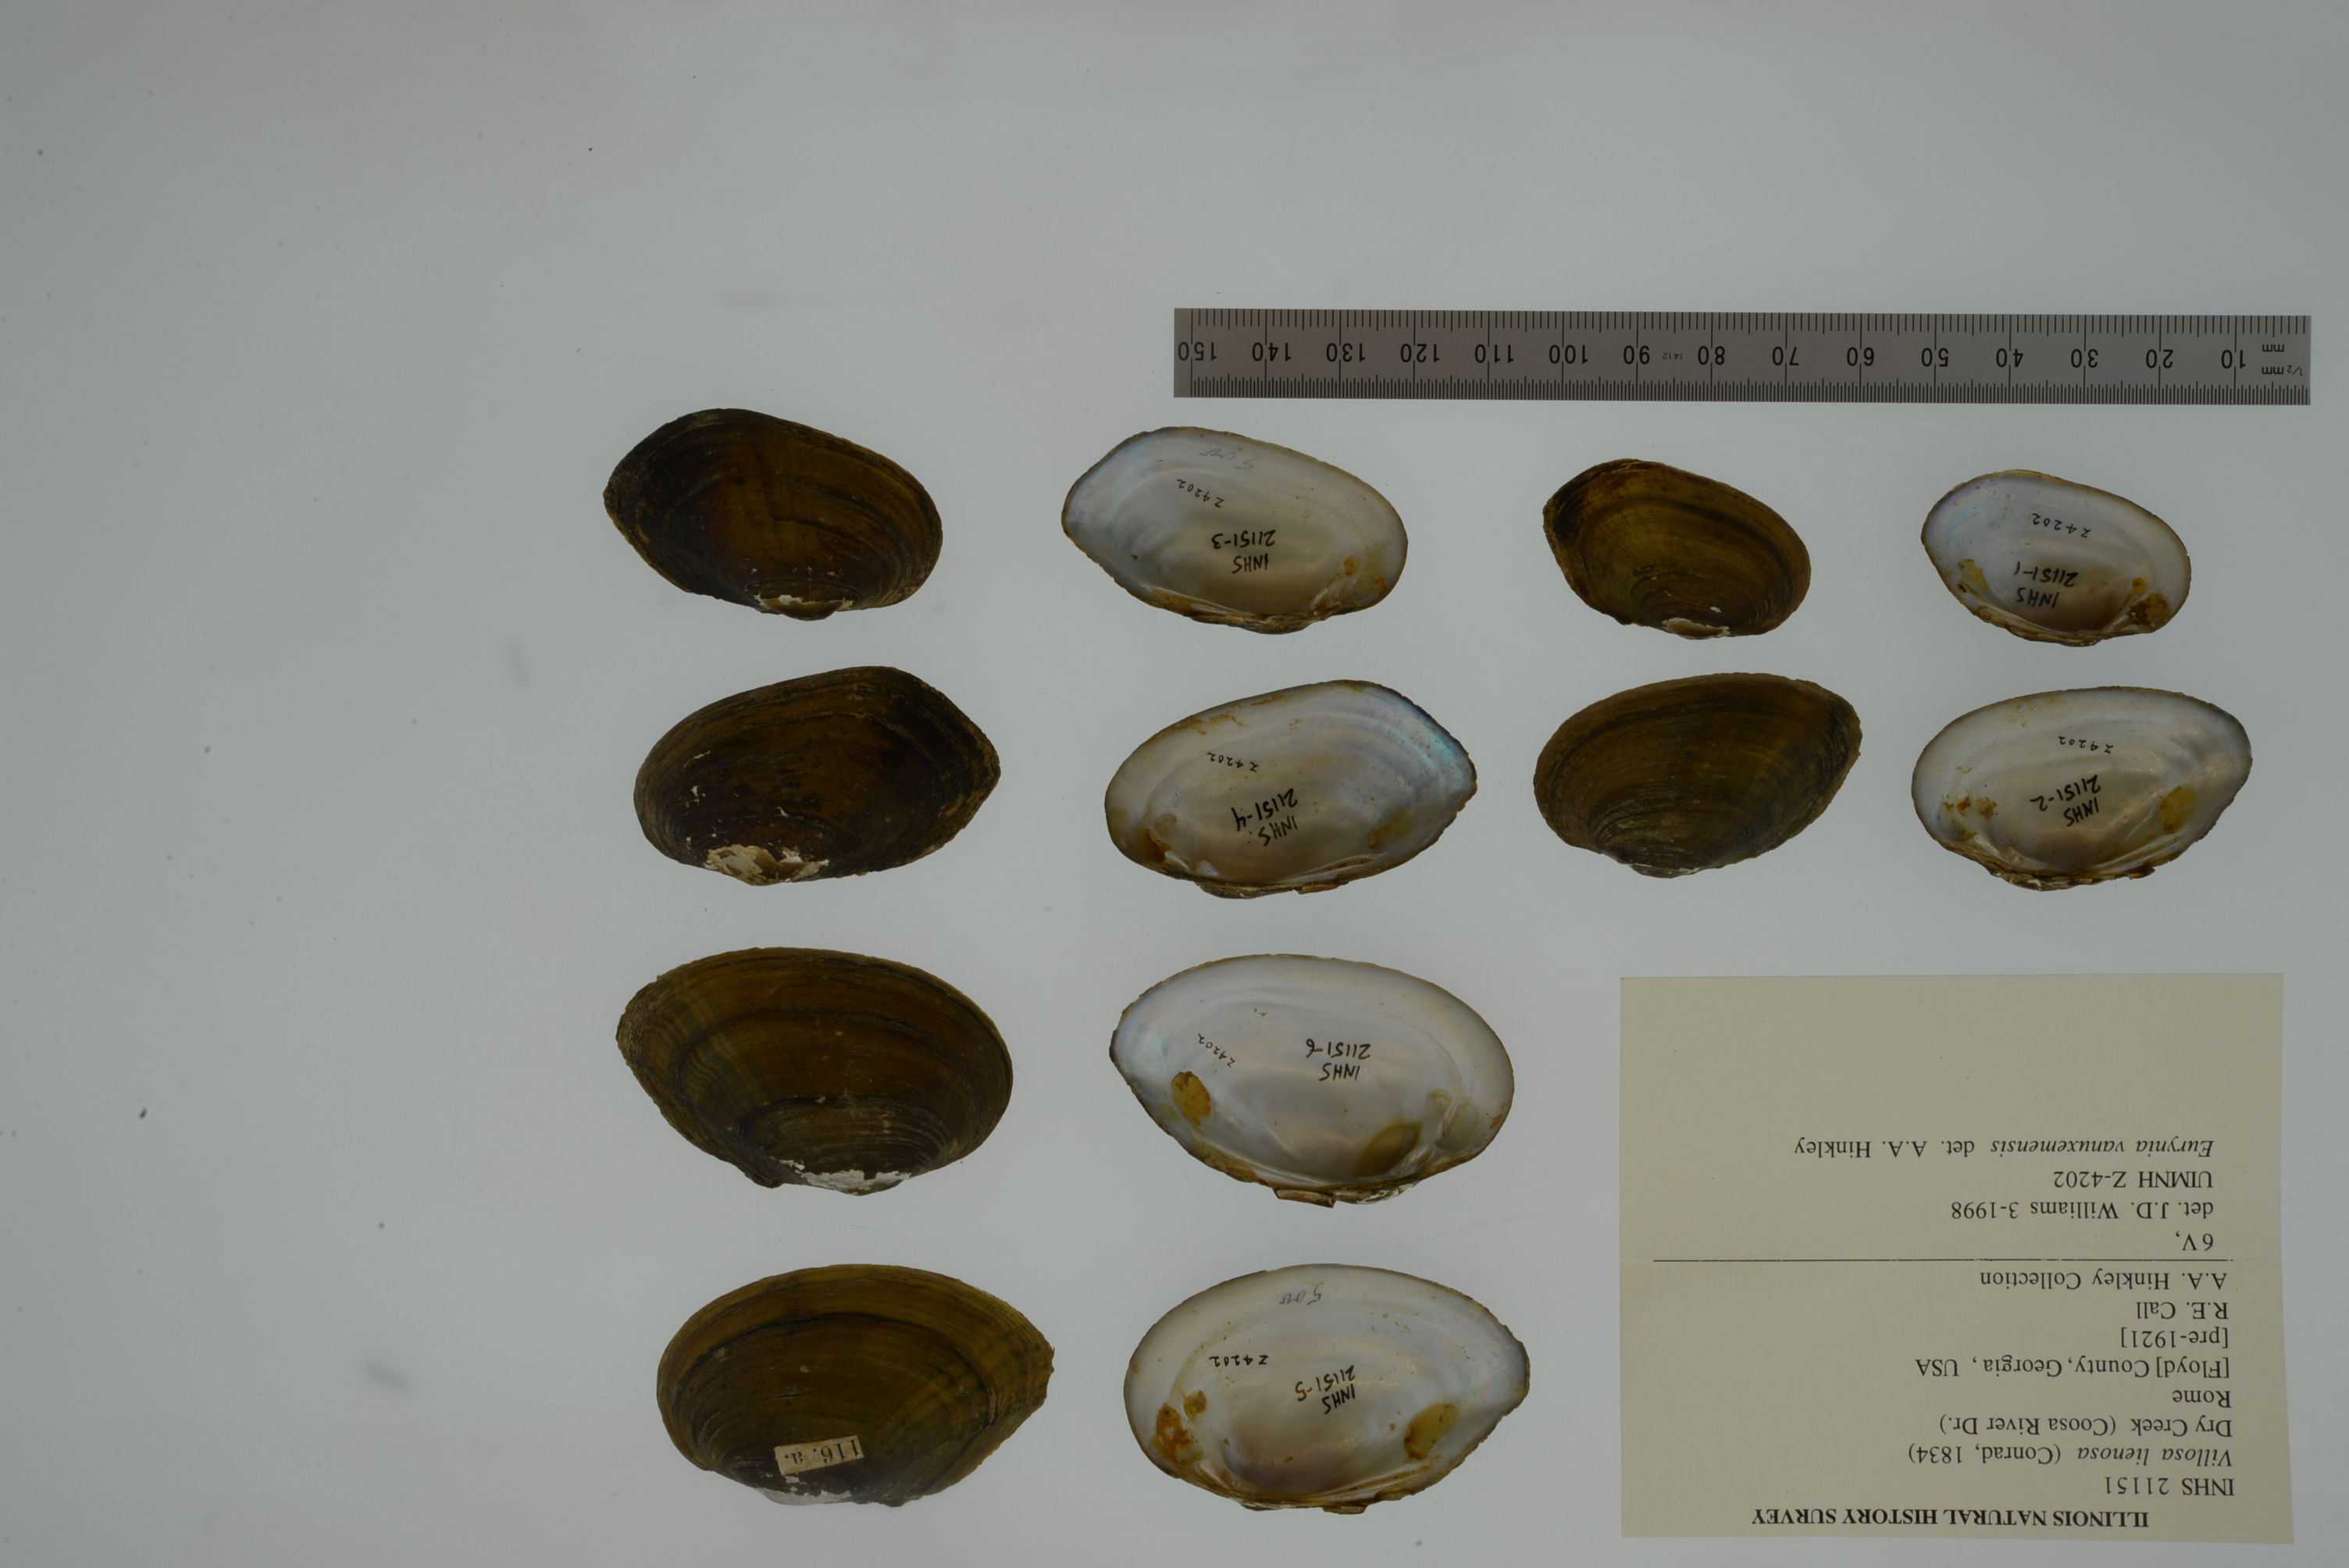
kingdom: Animalia
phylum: Mollusca
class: Bivalvia
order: Unionida
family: Unionidae
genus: Leaunio
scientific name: Leaunio lienosus
